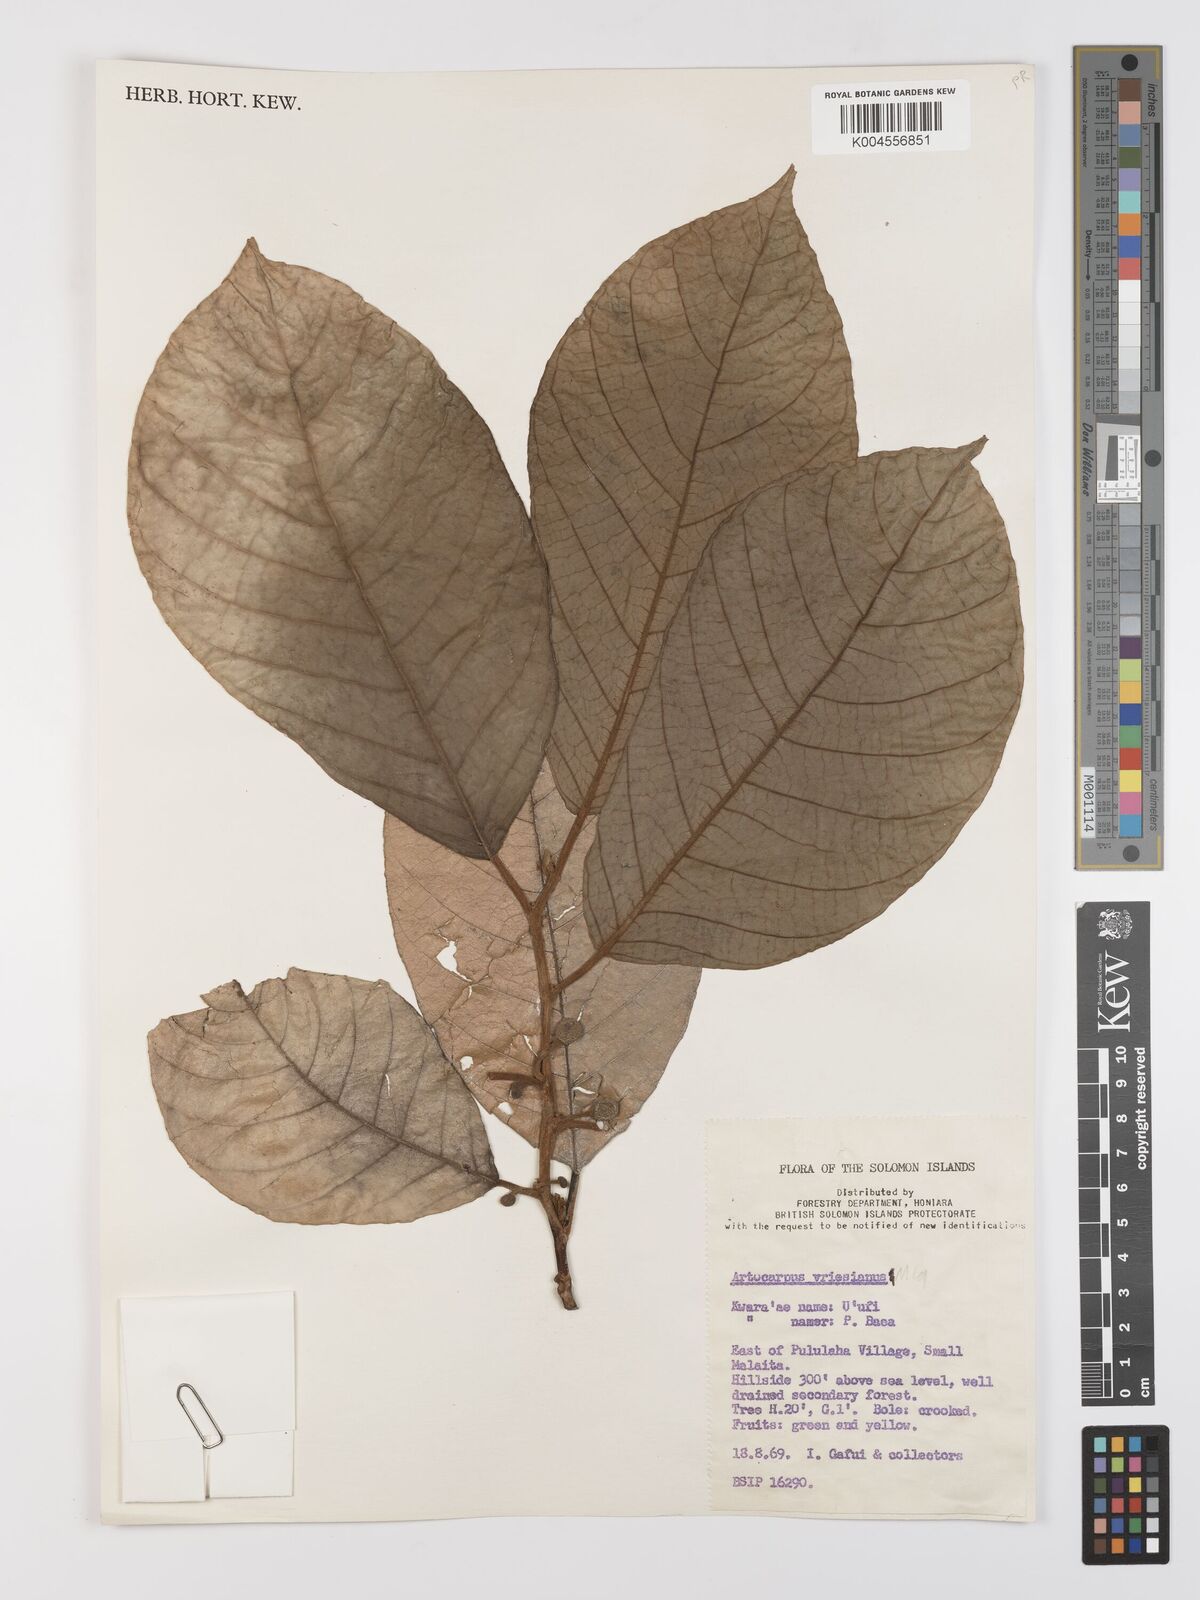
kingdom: Plantae
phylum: Tracheophyta
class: Magnoliopsida
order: Rosales
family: Moraceae
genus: Artocarpus
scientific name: Artocarpus vrieseanus
